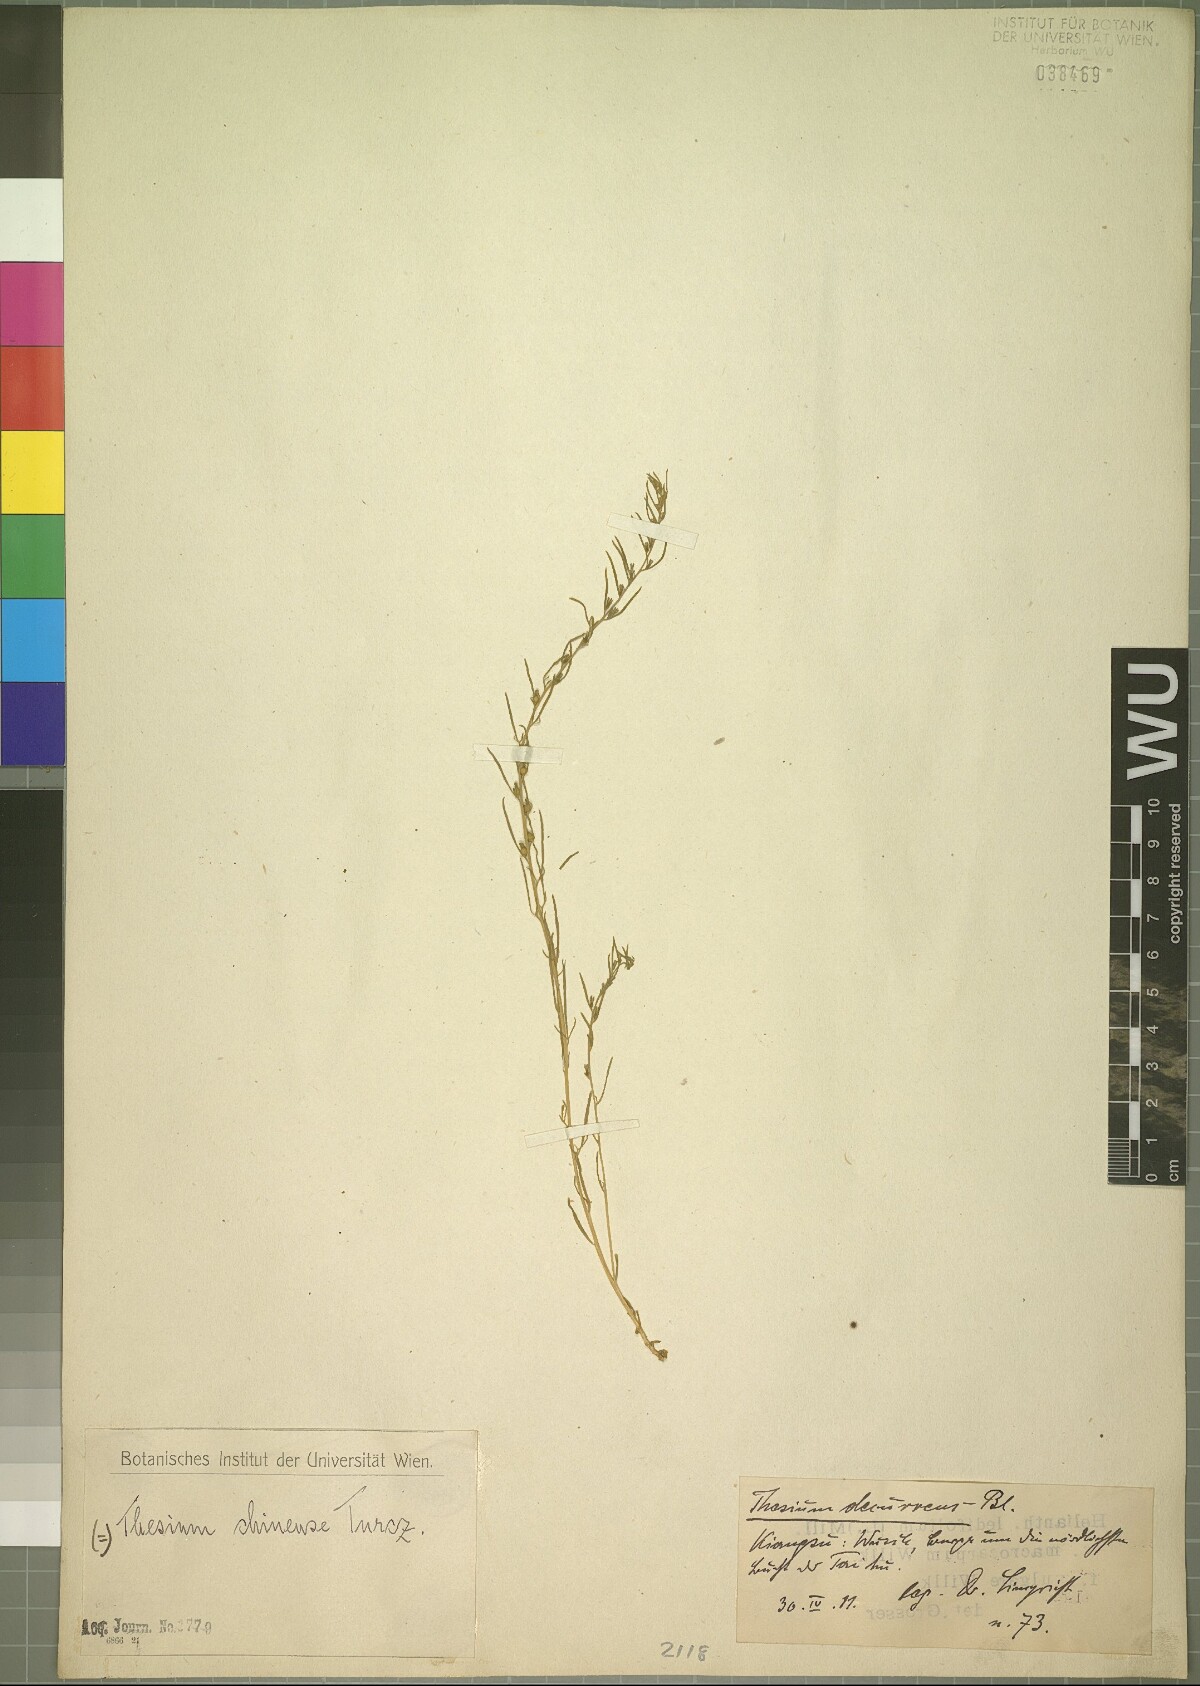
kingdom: Plantae
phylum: Tracheophyta
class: Magnoliopsida
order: Santalales
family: Thesiaceae
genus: Thesium
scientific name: Thesium chinense
